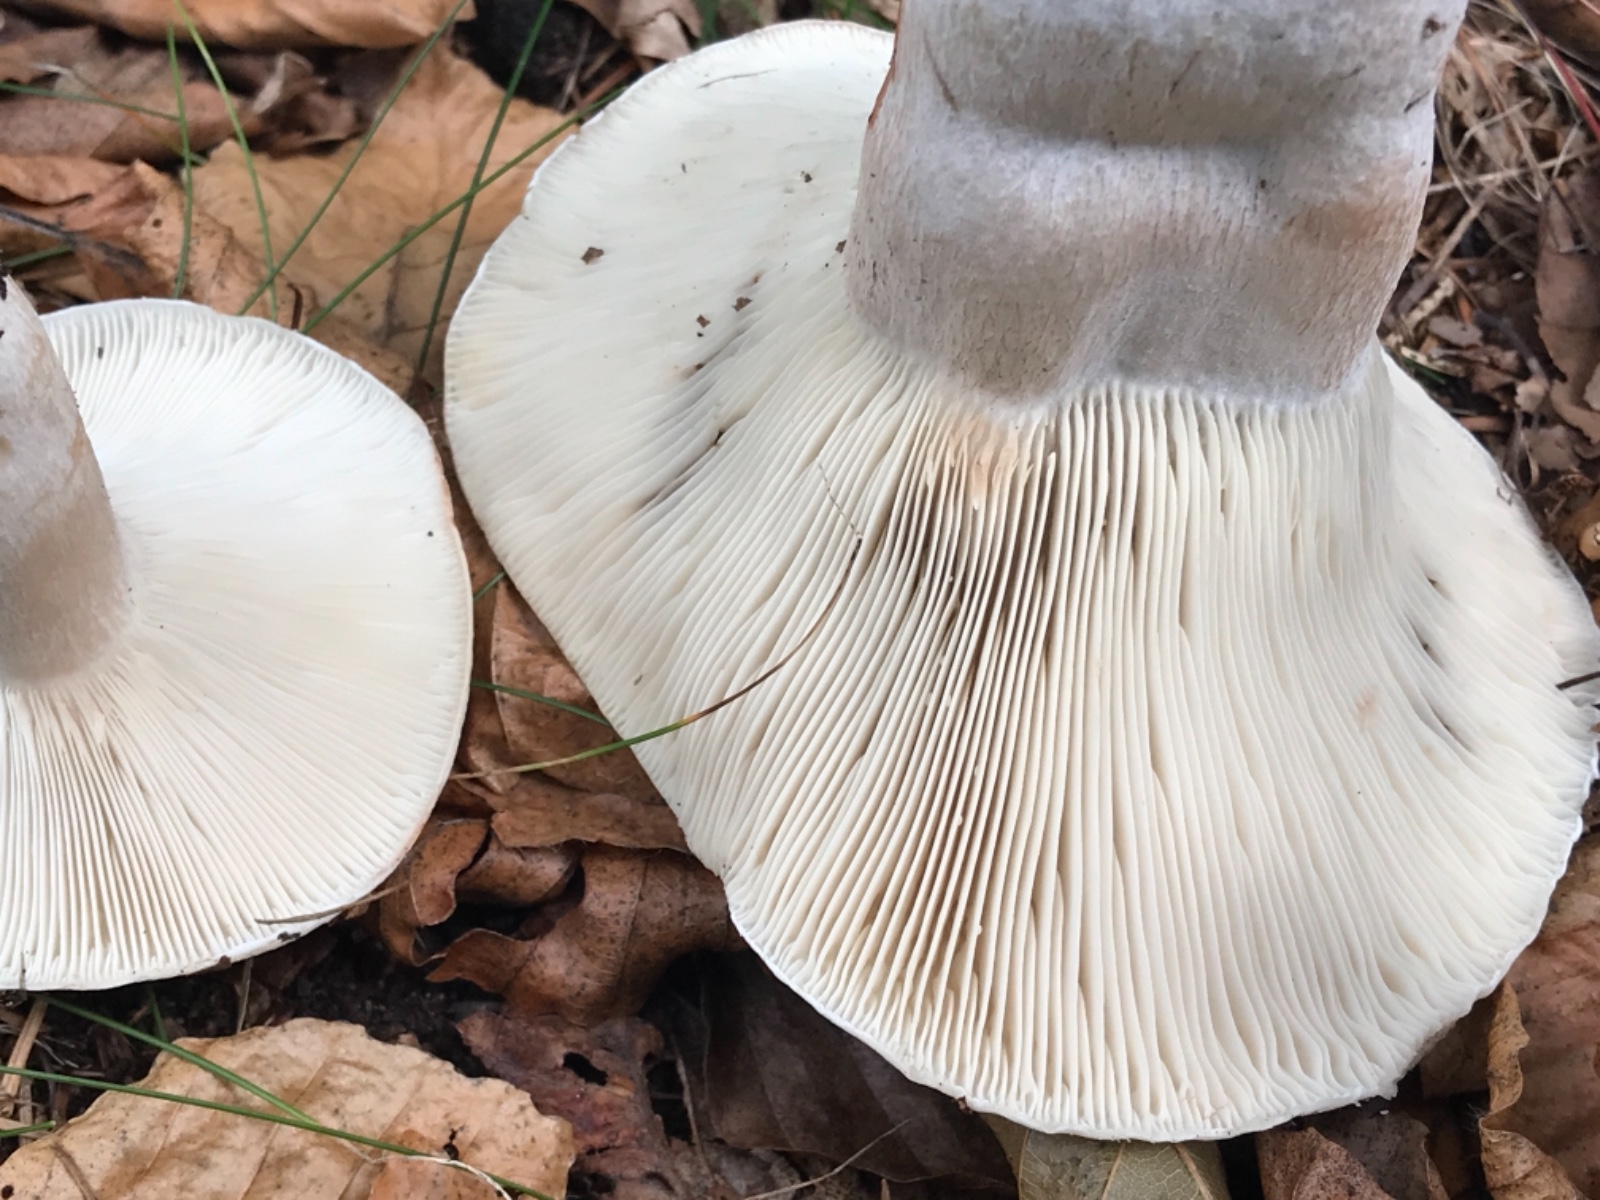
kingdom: Fungi
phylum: Basidiomycota
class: Agaricomycetes
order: Russulales
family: Russulaceae
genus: Russula
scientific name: Russula densifolia
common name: tætbladet skørhat
